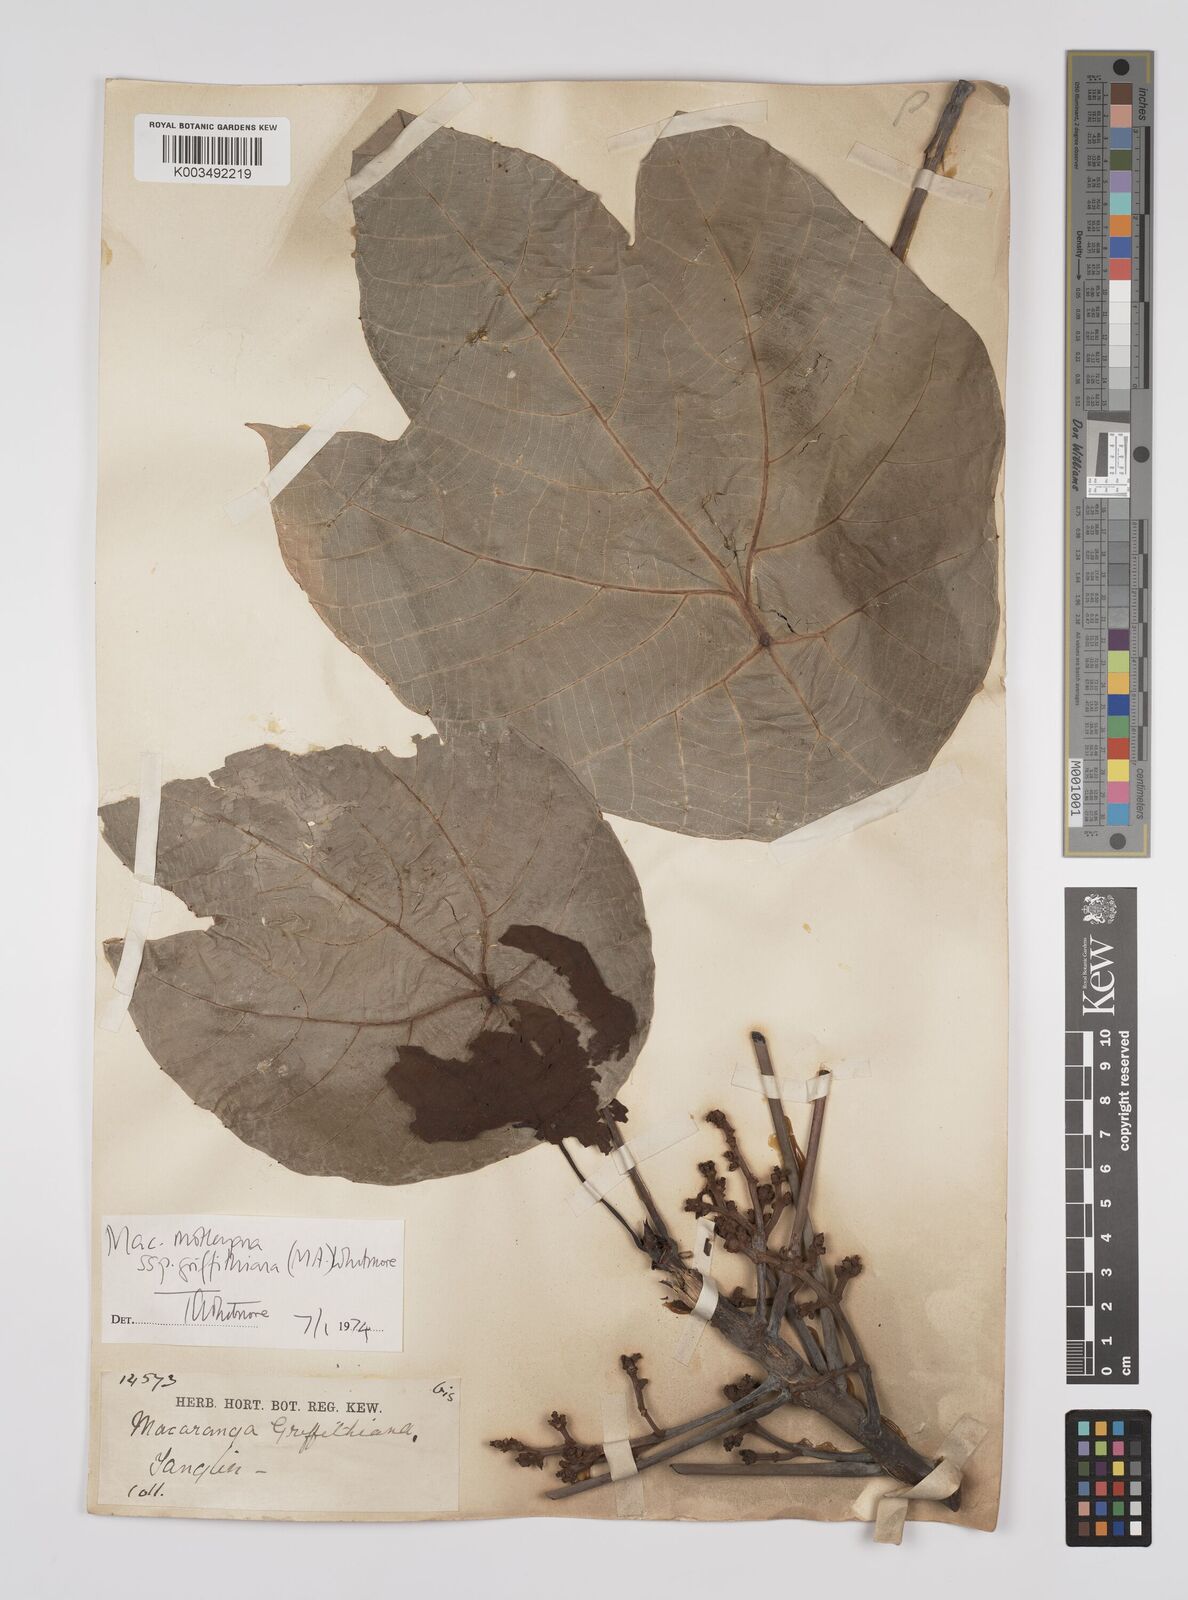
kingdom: Plantae
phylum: Tracheophyta
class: Magnoliopsida
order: Malpighiales
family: Euphorbiaceae
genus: Macaranga
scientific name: Macaranga griffithiana
